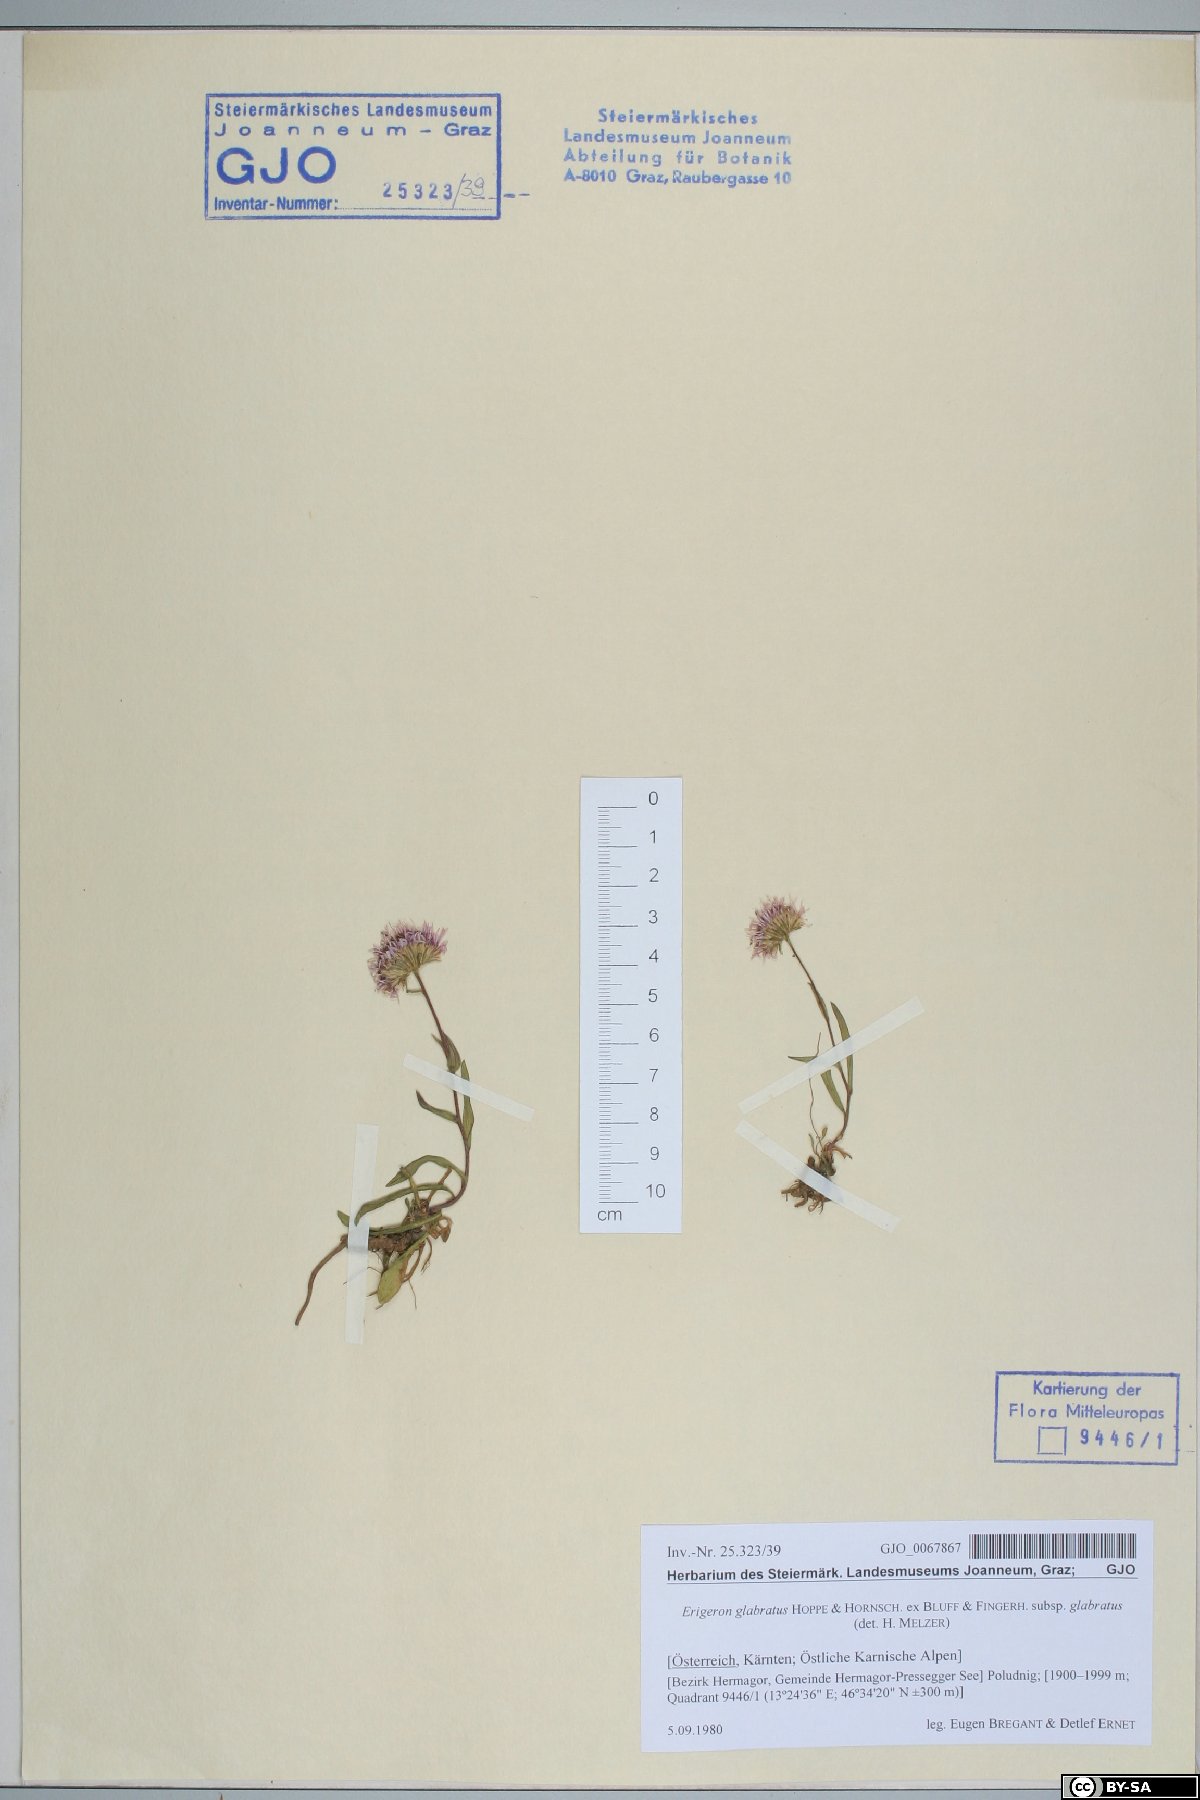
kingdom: Plantae
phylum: Tracheophyta
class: Magnoliopsida
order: Asterales
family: Asteraceae
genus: Erigeron
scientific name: Erigeron glabratus
